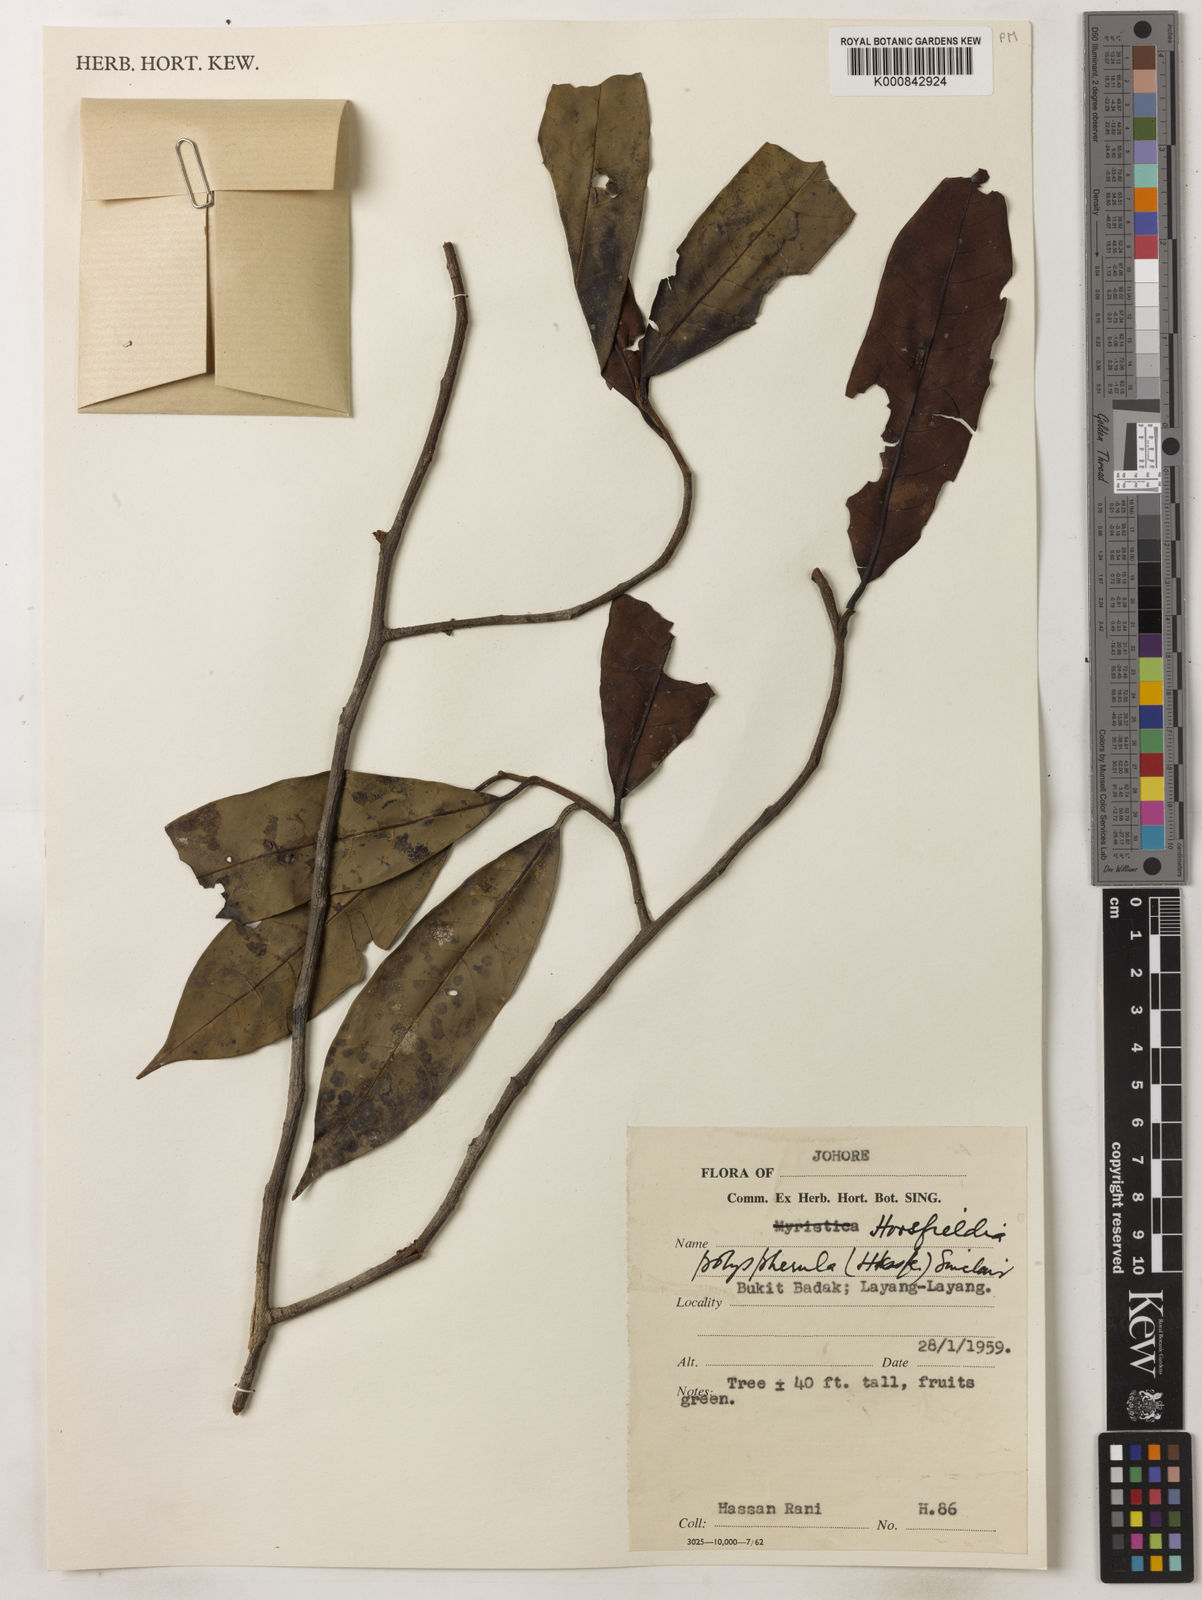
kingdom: Plantae
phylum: Tracheophyta
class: Magnoliopsida
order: Magnoliales
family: Myristicaceae
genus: Horsfieldia
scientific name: Horsfieldia
